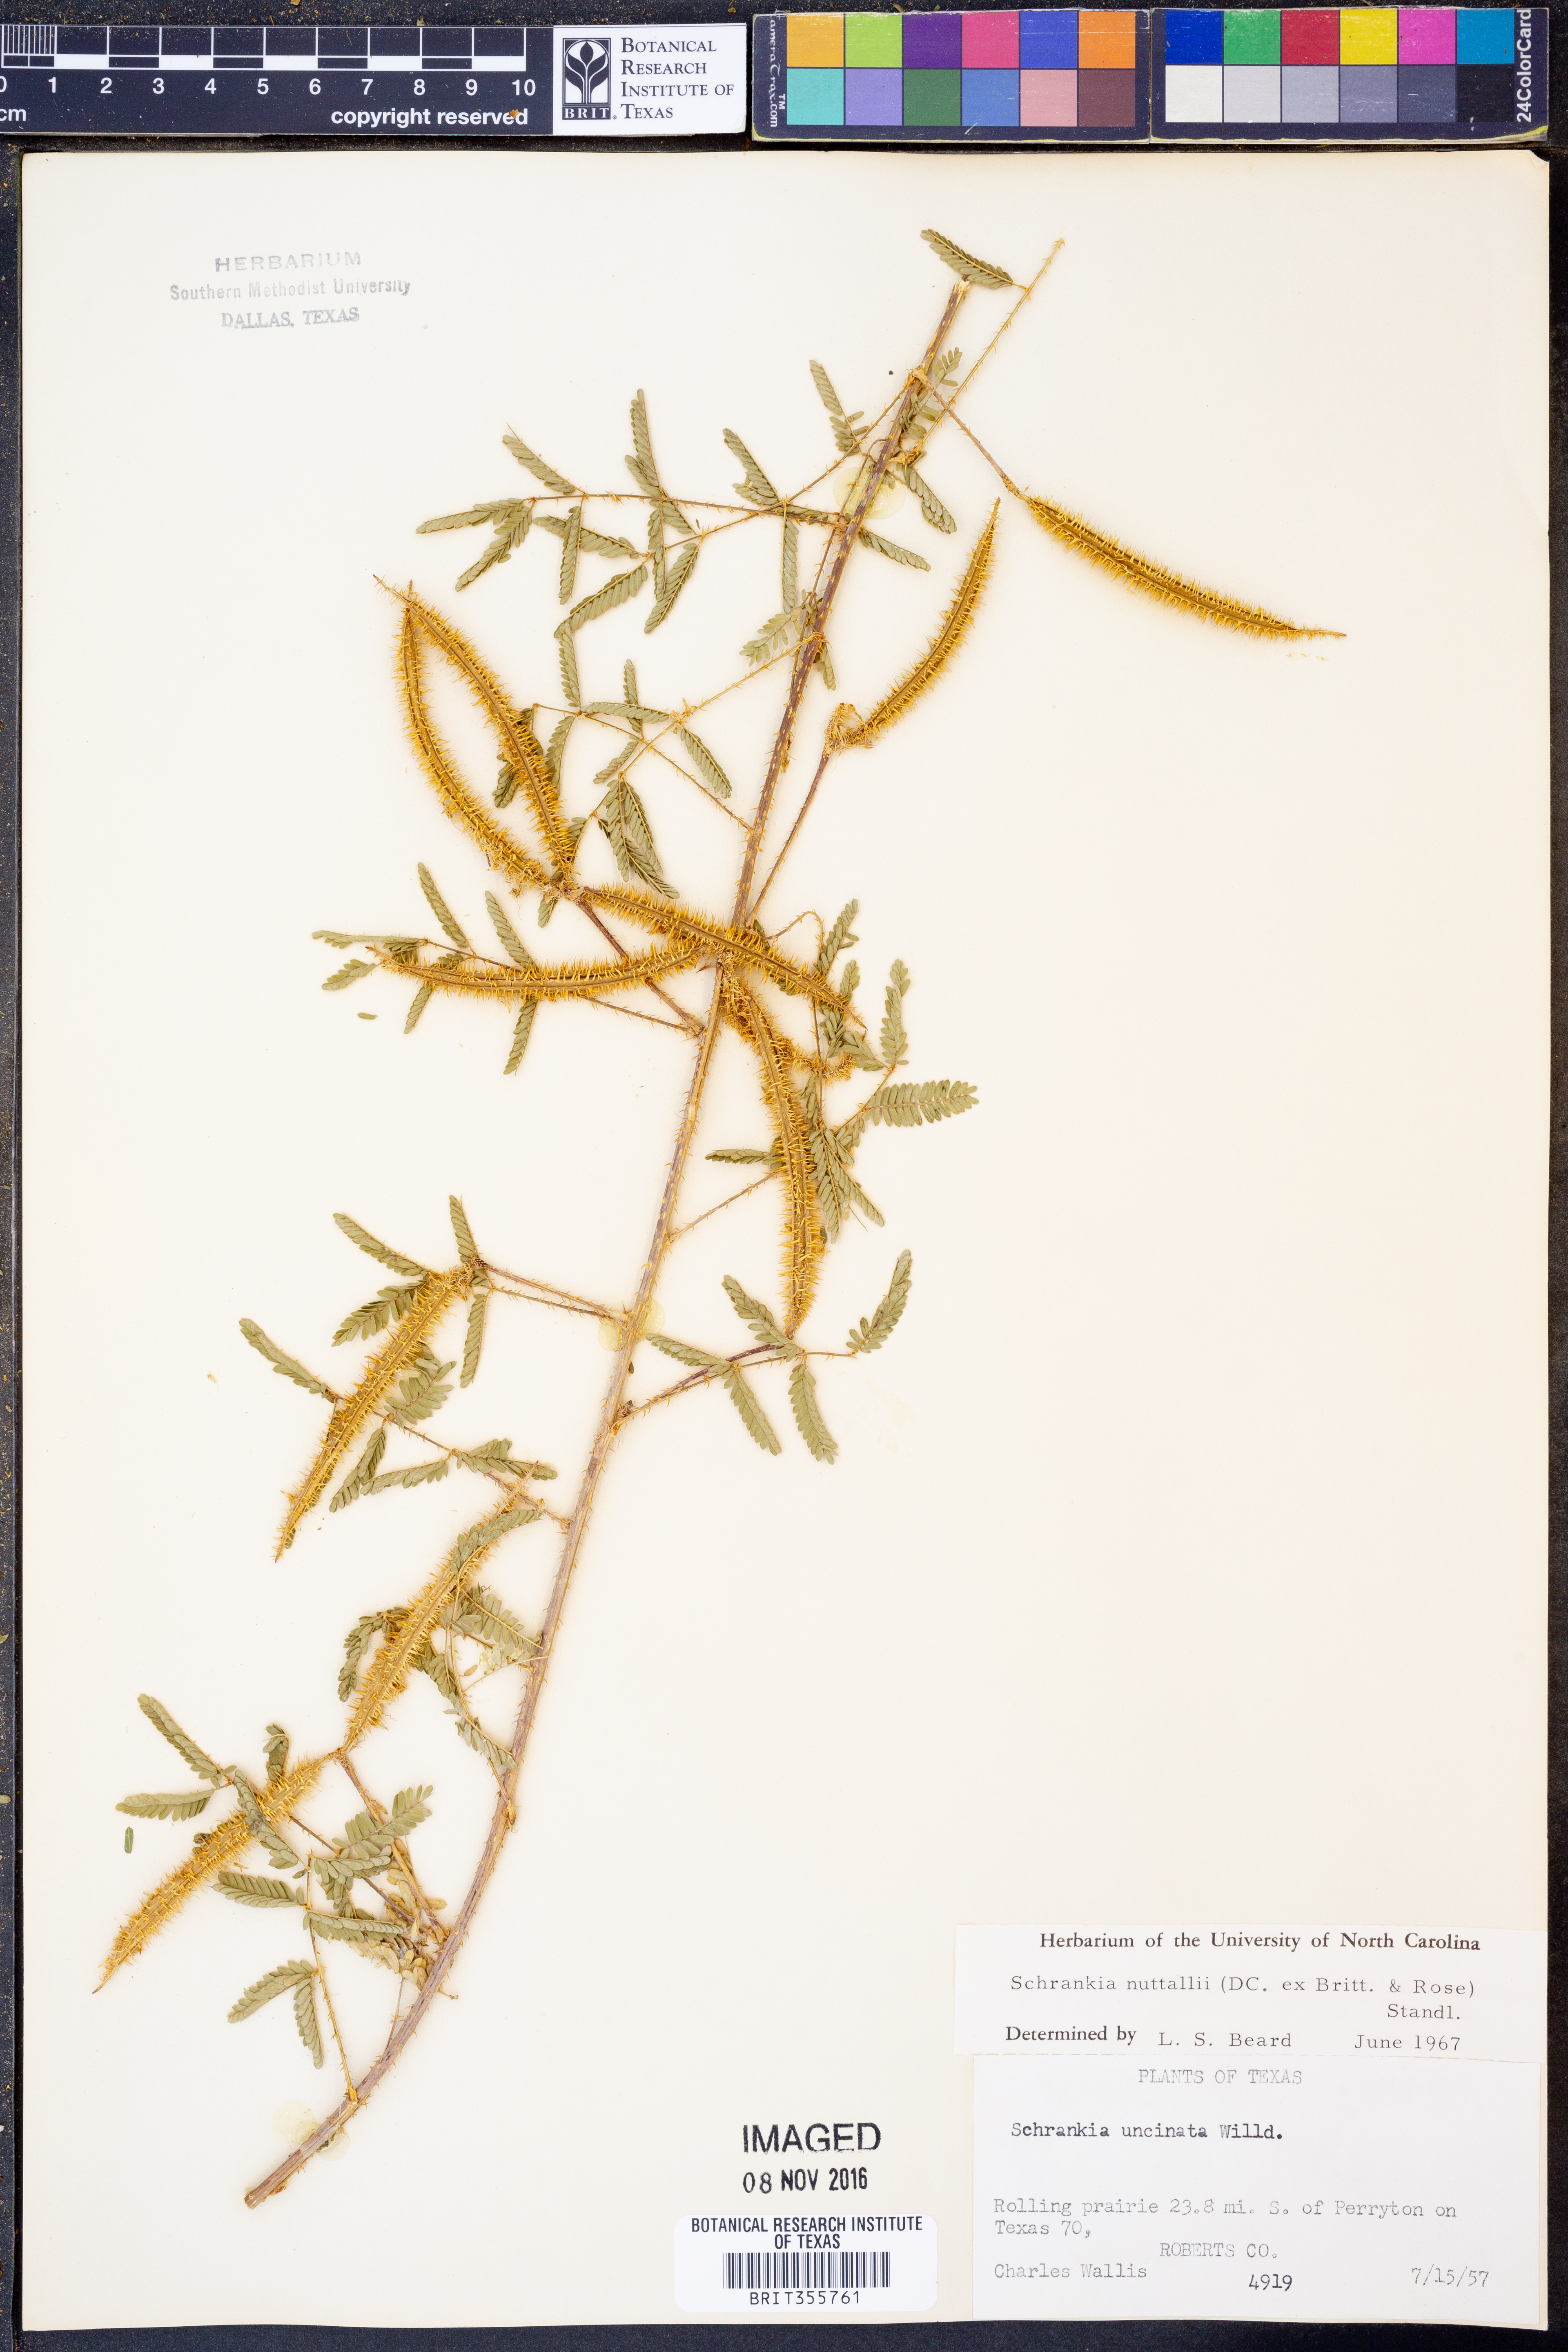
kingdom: Plantae
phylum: Tracheophyta
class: Magnoliopsida
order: Fabales
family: Fabaceae
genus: Mimosa
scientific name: Mimosa quadrivalvis
